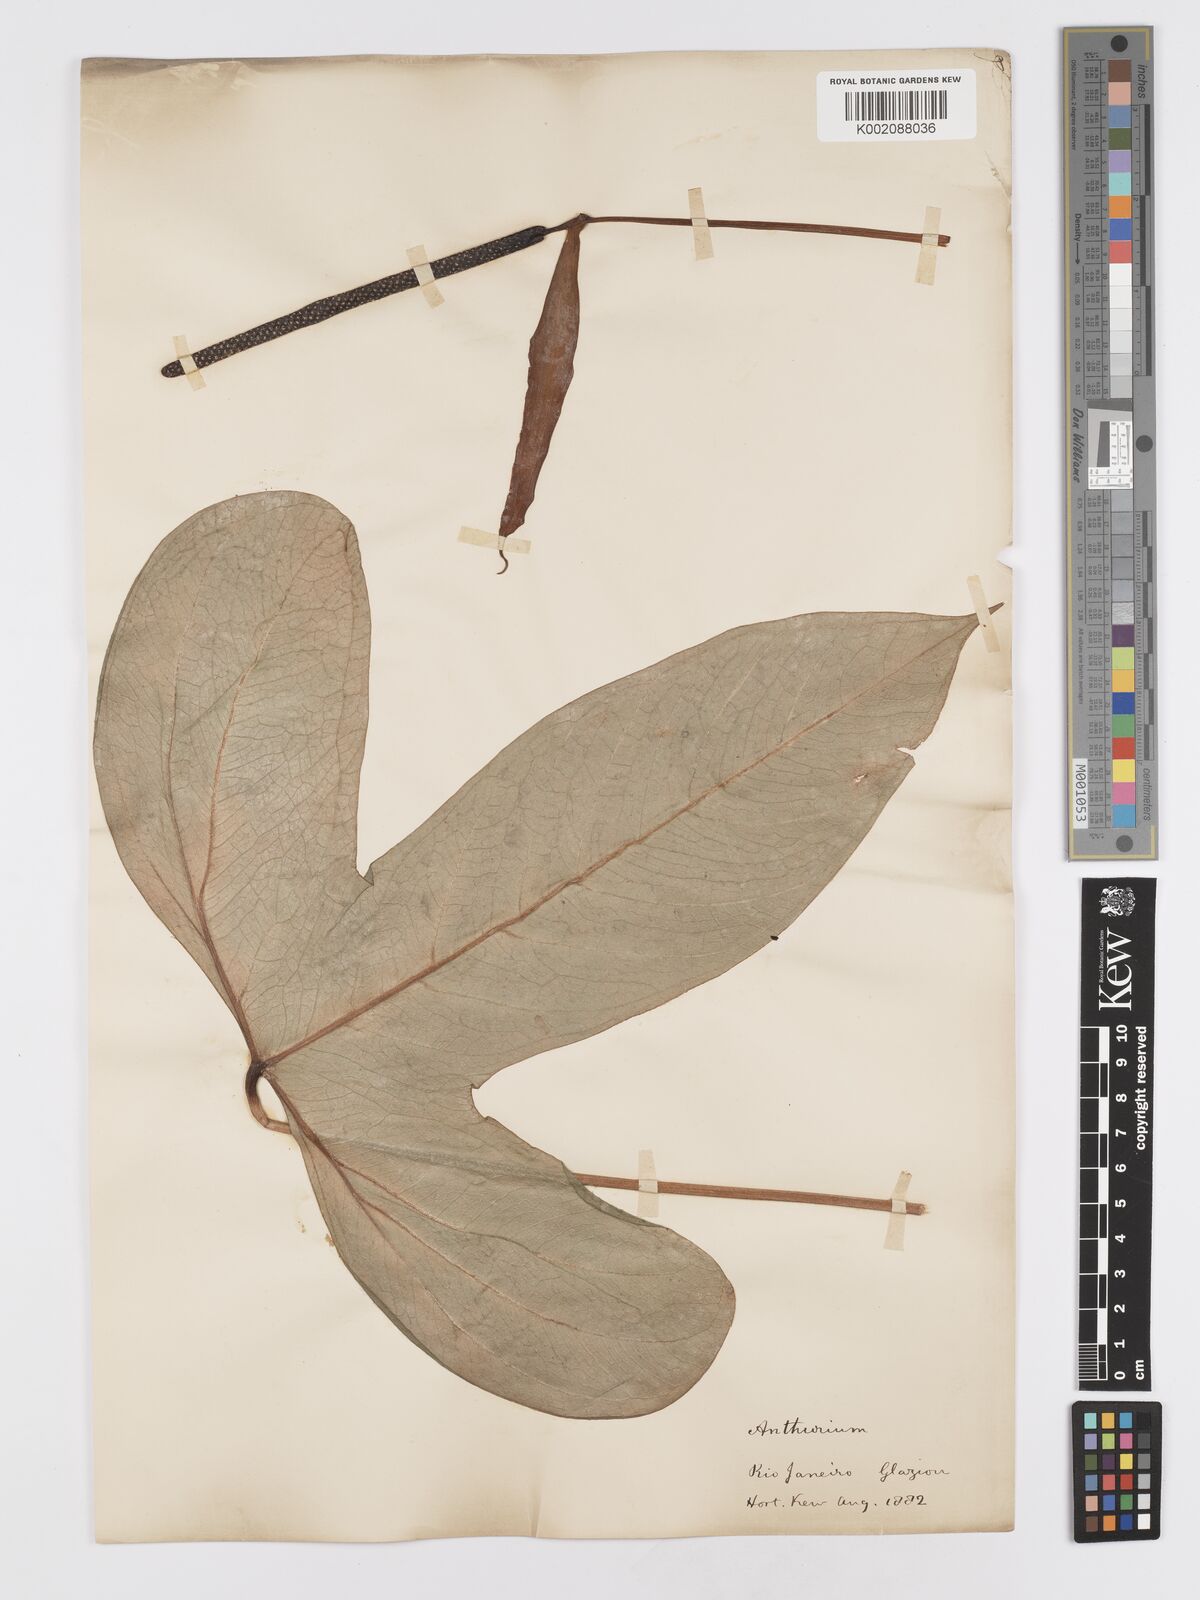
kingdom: Plantae
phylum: Tracheophyta
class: Liliopsida
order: Alismatales
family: Araceae
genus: Anthurium
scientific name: Anthurium signatum
